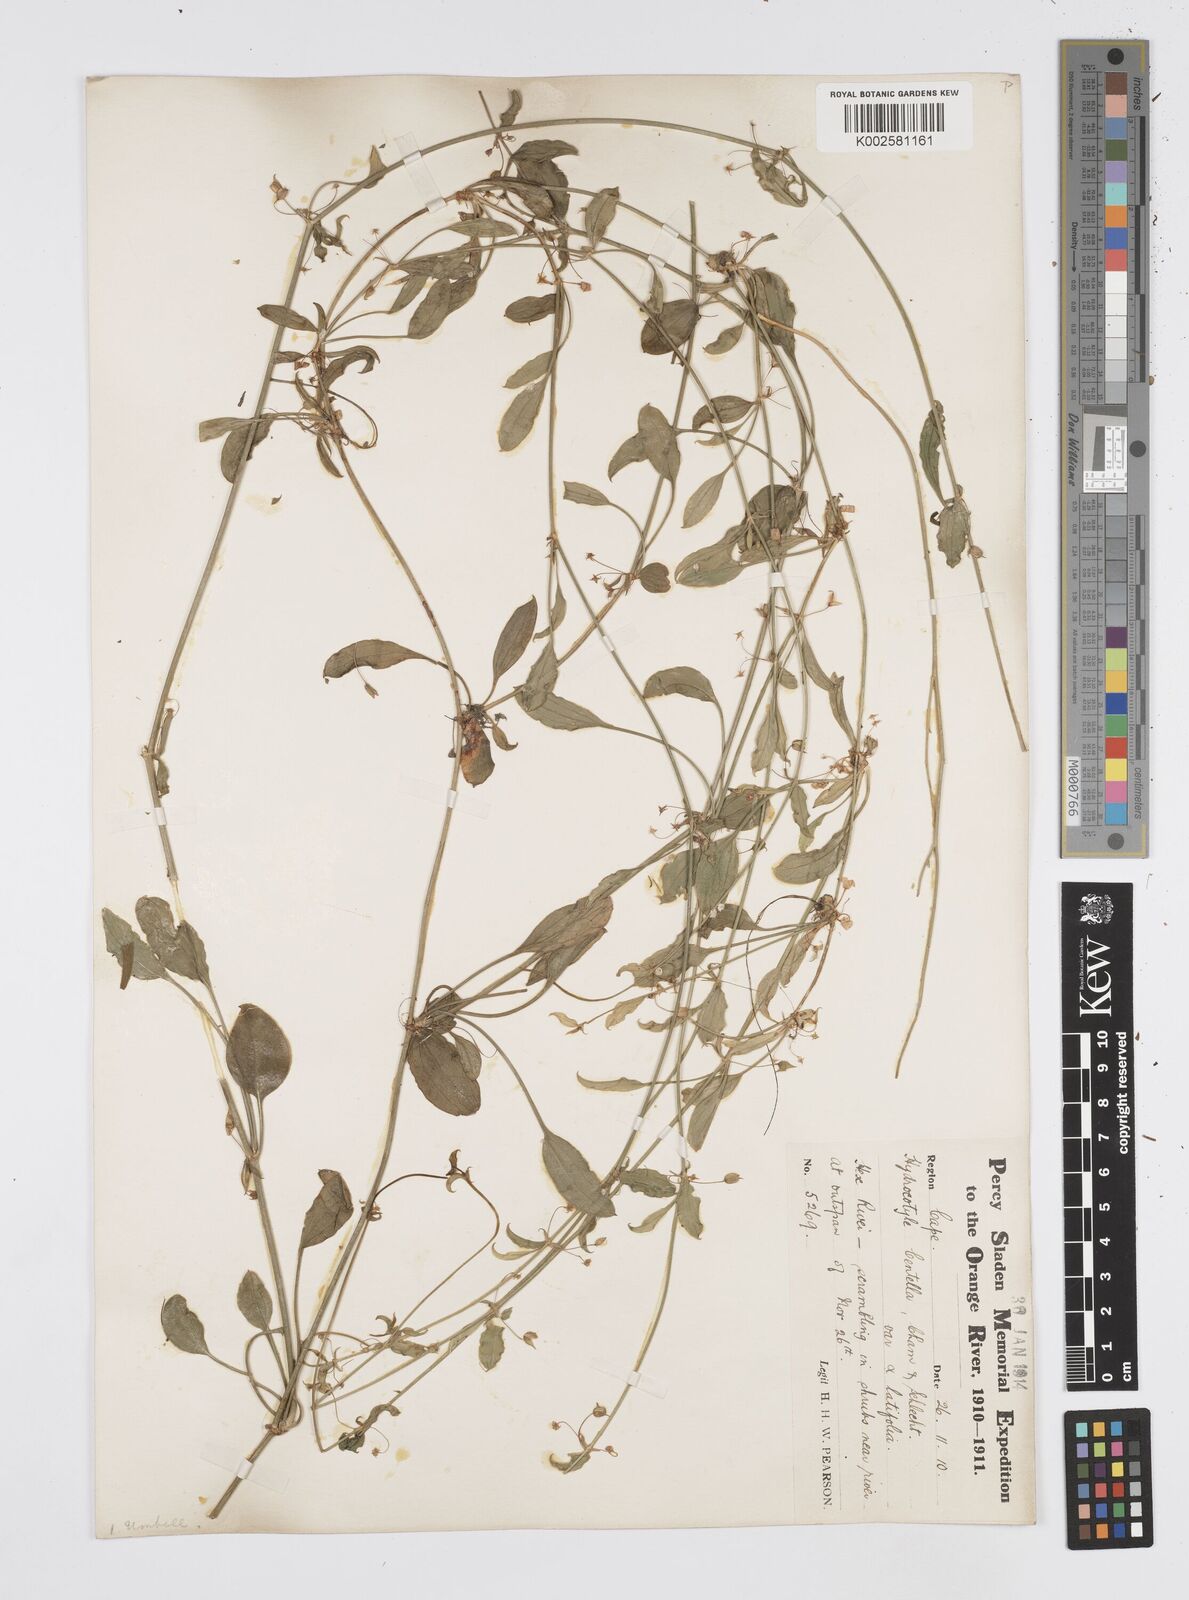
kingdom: Plantae
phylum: Tracheophyta
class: Magnoliopsida
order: Apiales
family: Apiaceae
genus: Centella
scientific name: Centella lasiophylla
